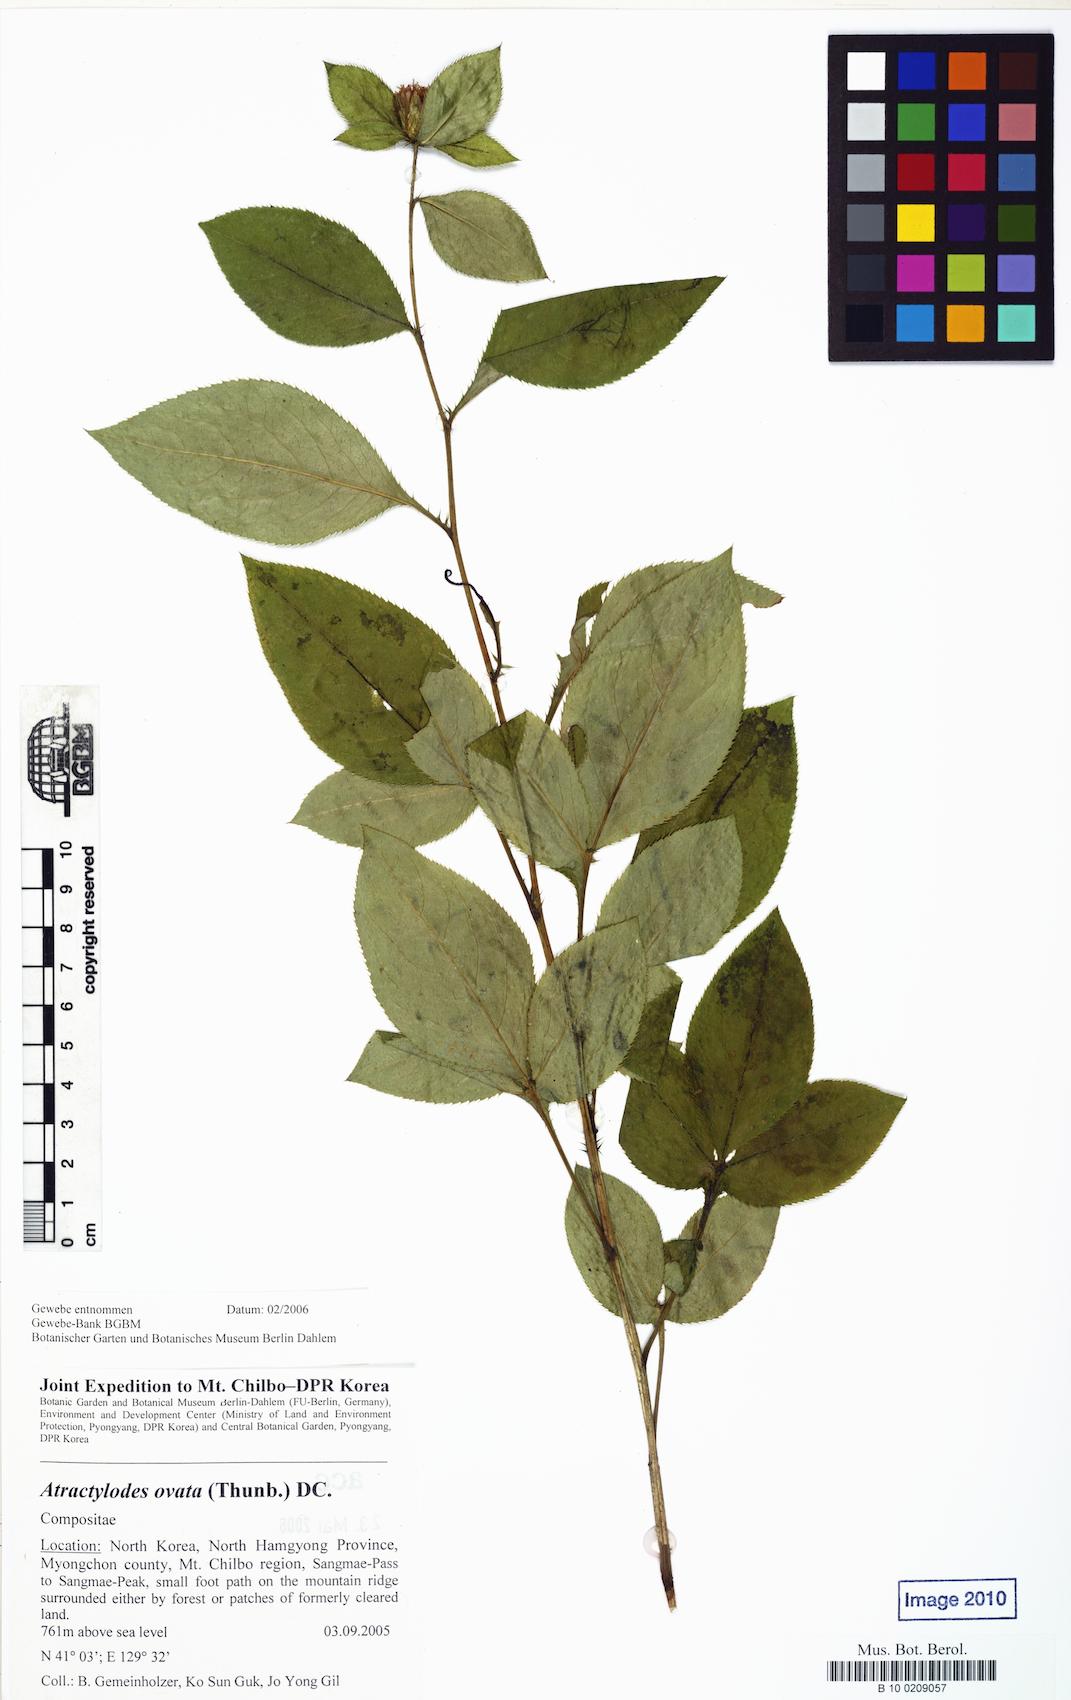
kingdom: Plantae
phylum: Tracheophyta
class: Magnoliopsida
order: Asterales
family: Asteraceae
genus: Atractylodes
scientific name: Atractylodes lancea
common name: Southern tsangshu
